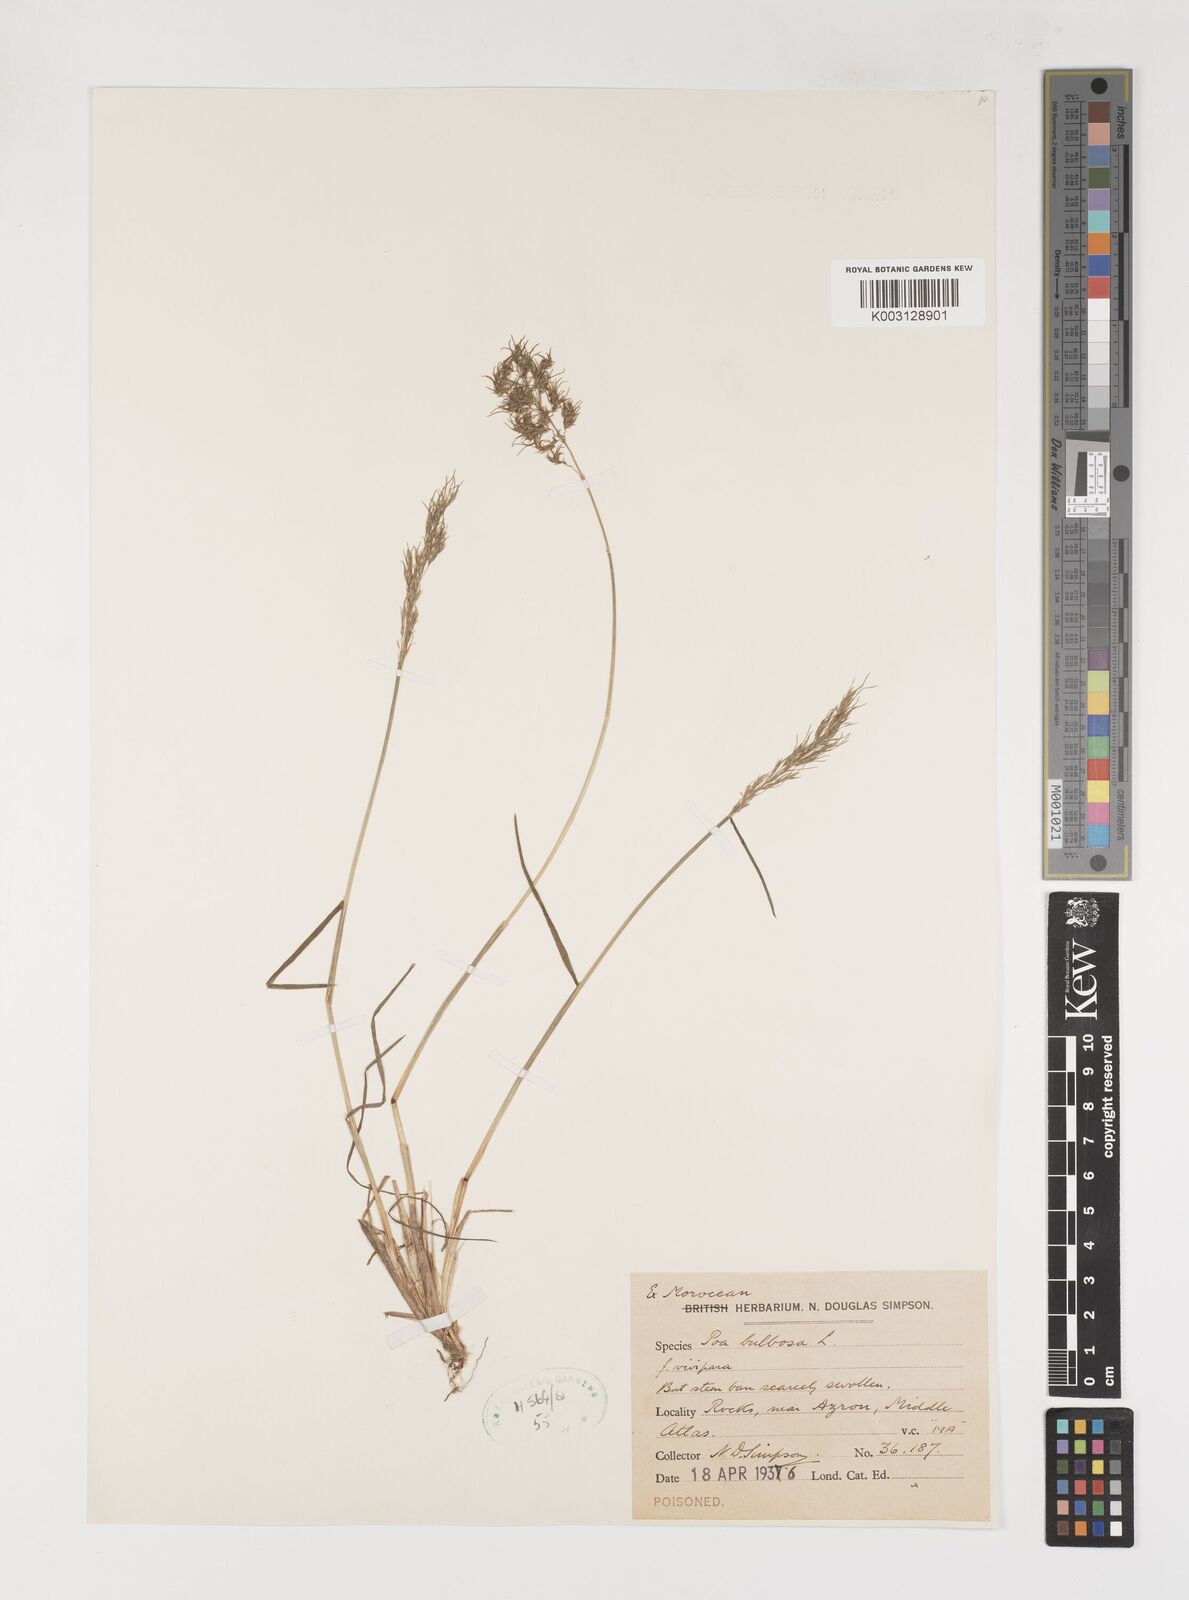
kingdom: Plantae
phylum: Tracheophyta
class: Liliopsida
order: Poales
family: Poaceae
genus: Poa
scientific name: Poa bulbosa
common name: Bulbous bluegrass
